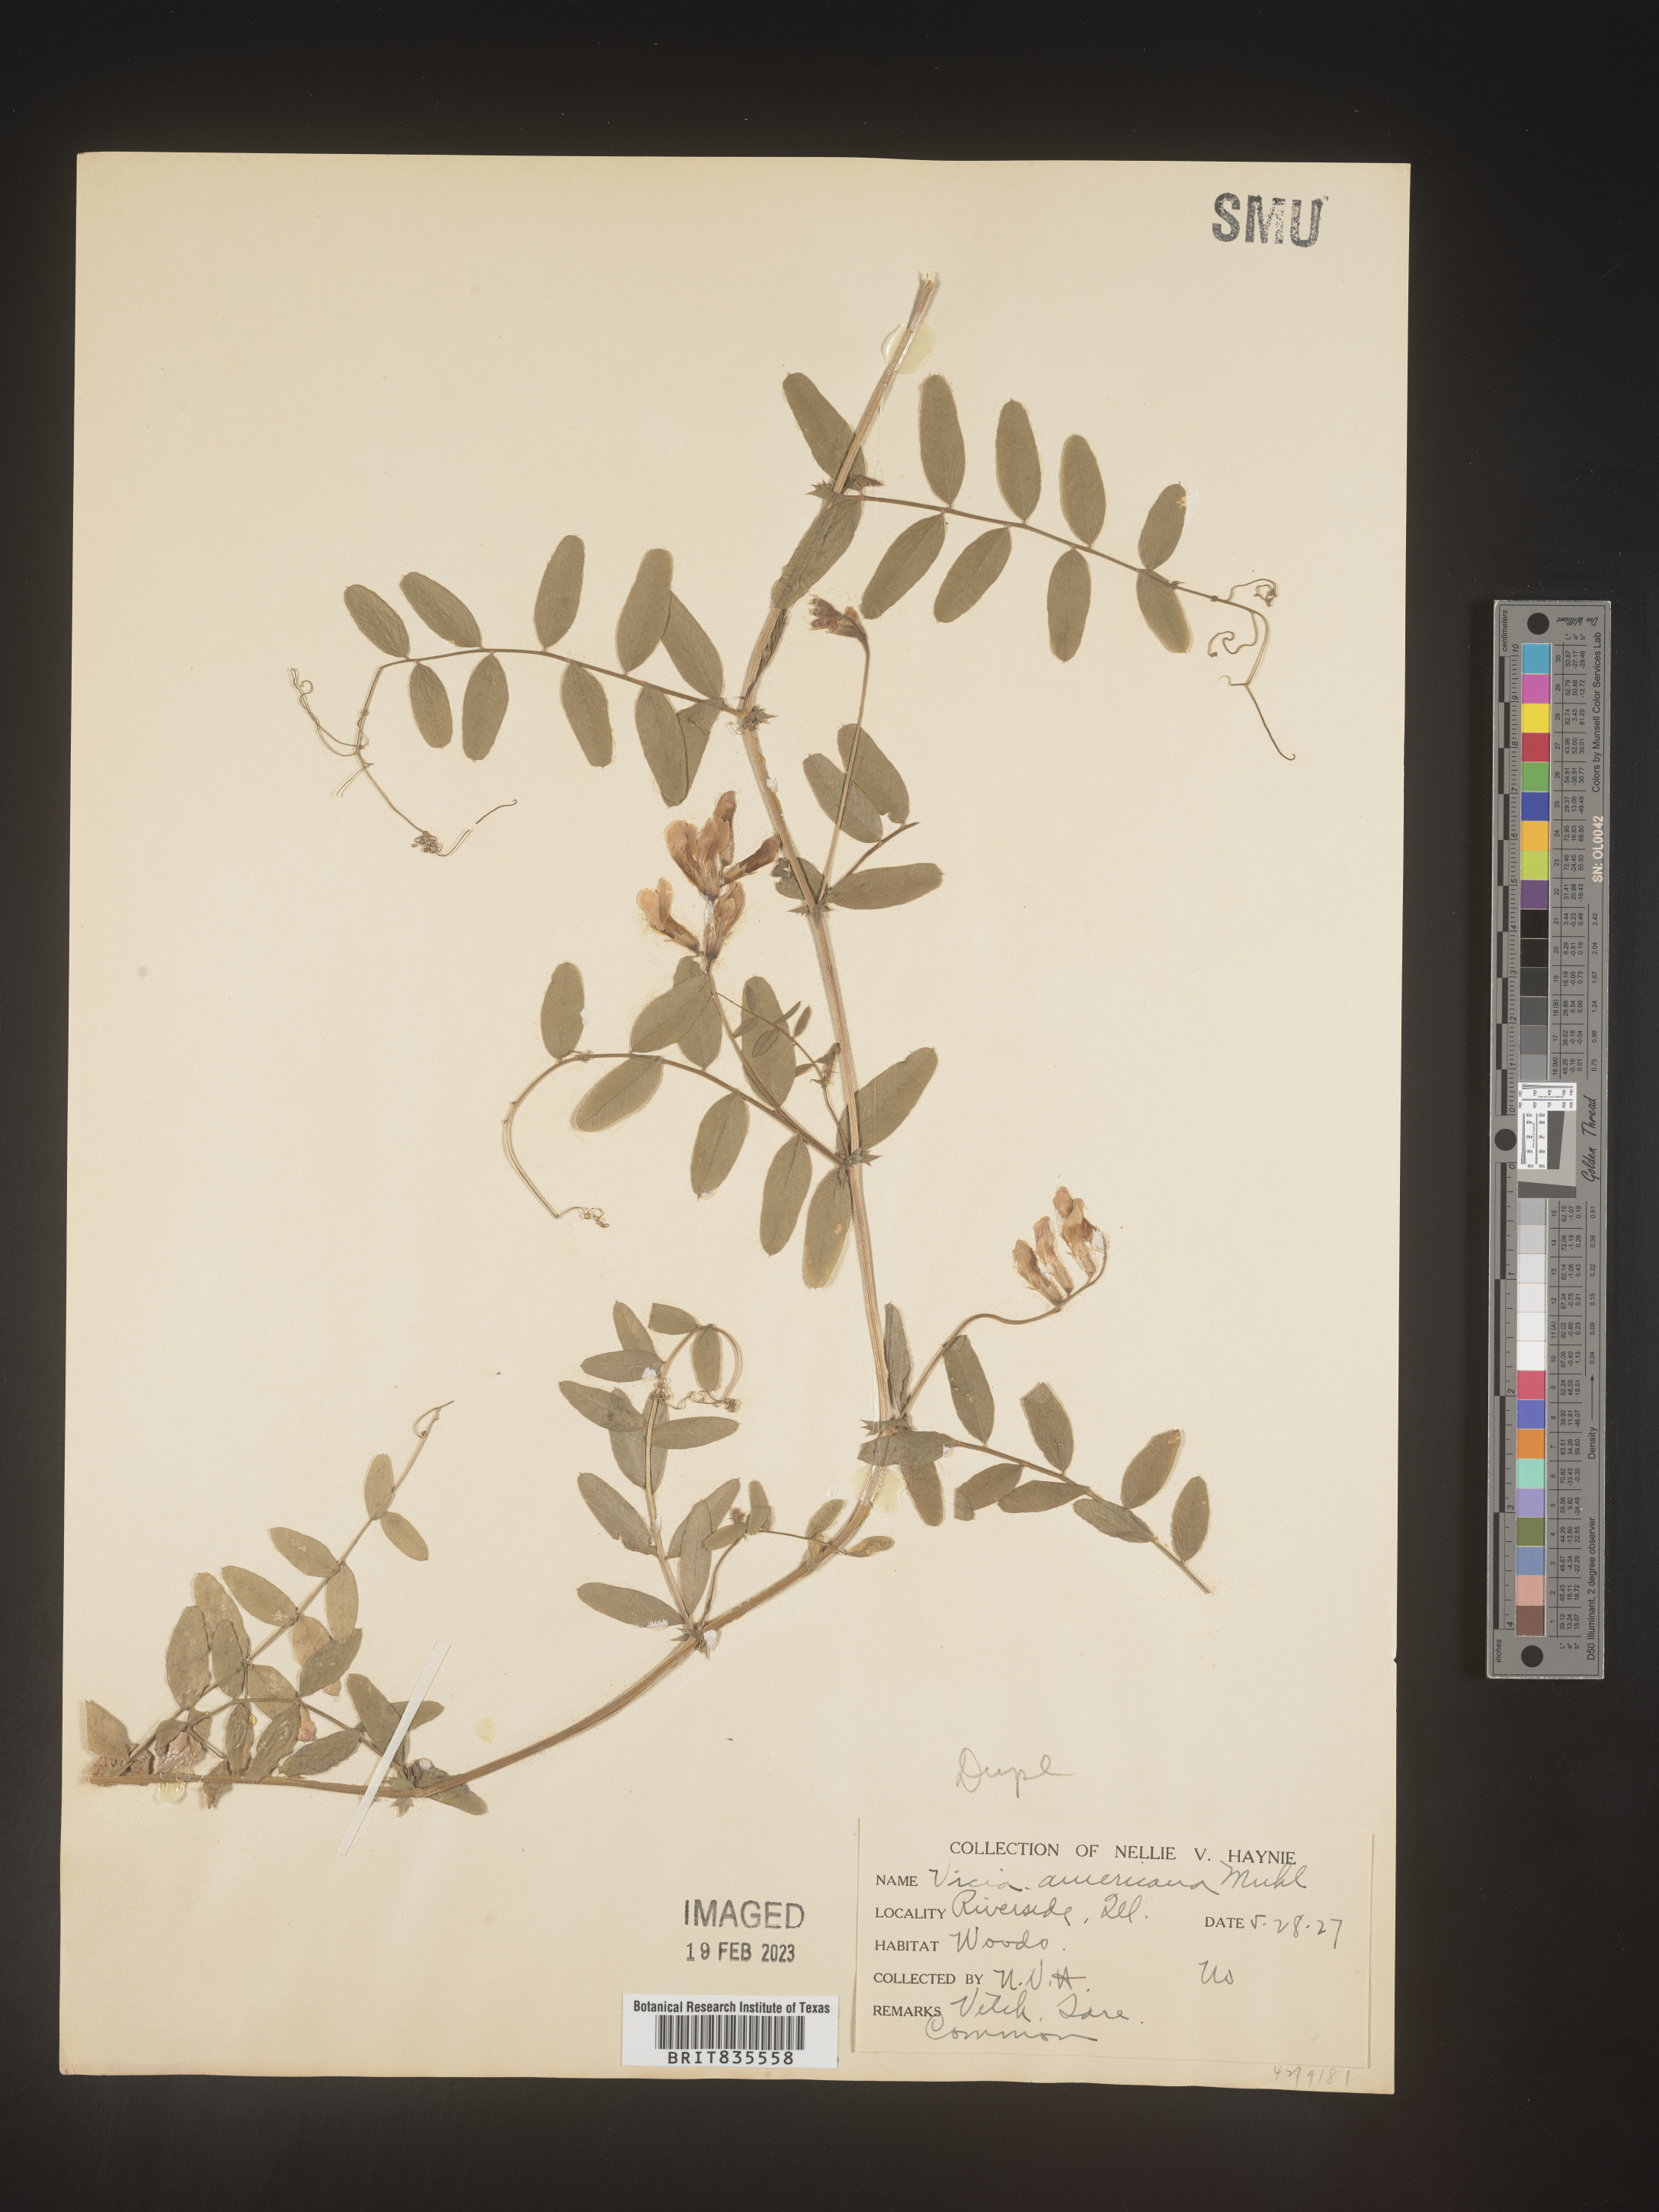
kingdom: Plantae
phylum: Tracheophyta
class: Magnoliopsida
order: Fabales
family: Fabaceae
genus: Vicia
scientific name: Vicia americana
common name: American vetch
